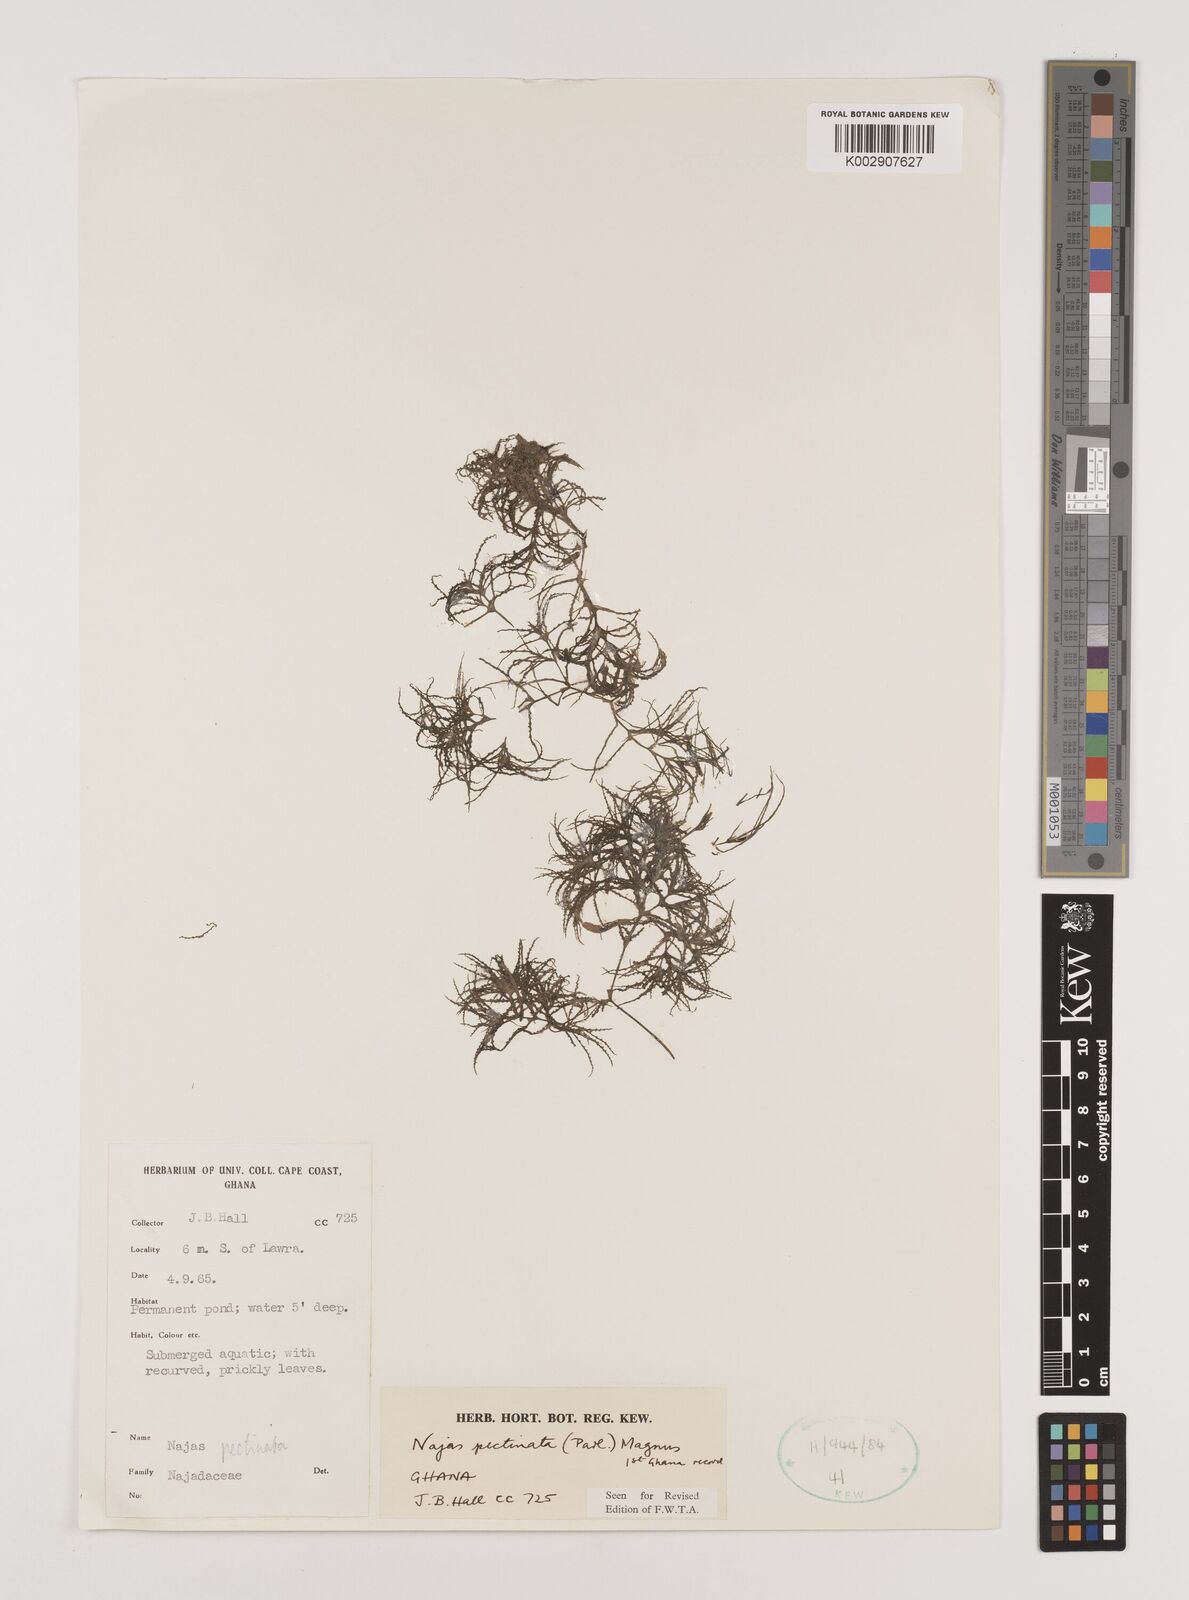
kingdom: Plantae
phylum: Tracheophyta
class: Liliopsida
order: Alismatales
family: Hydrocharitaceae
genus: Najas
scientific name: Najas pectinata
